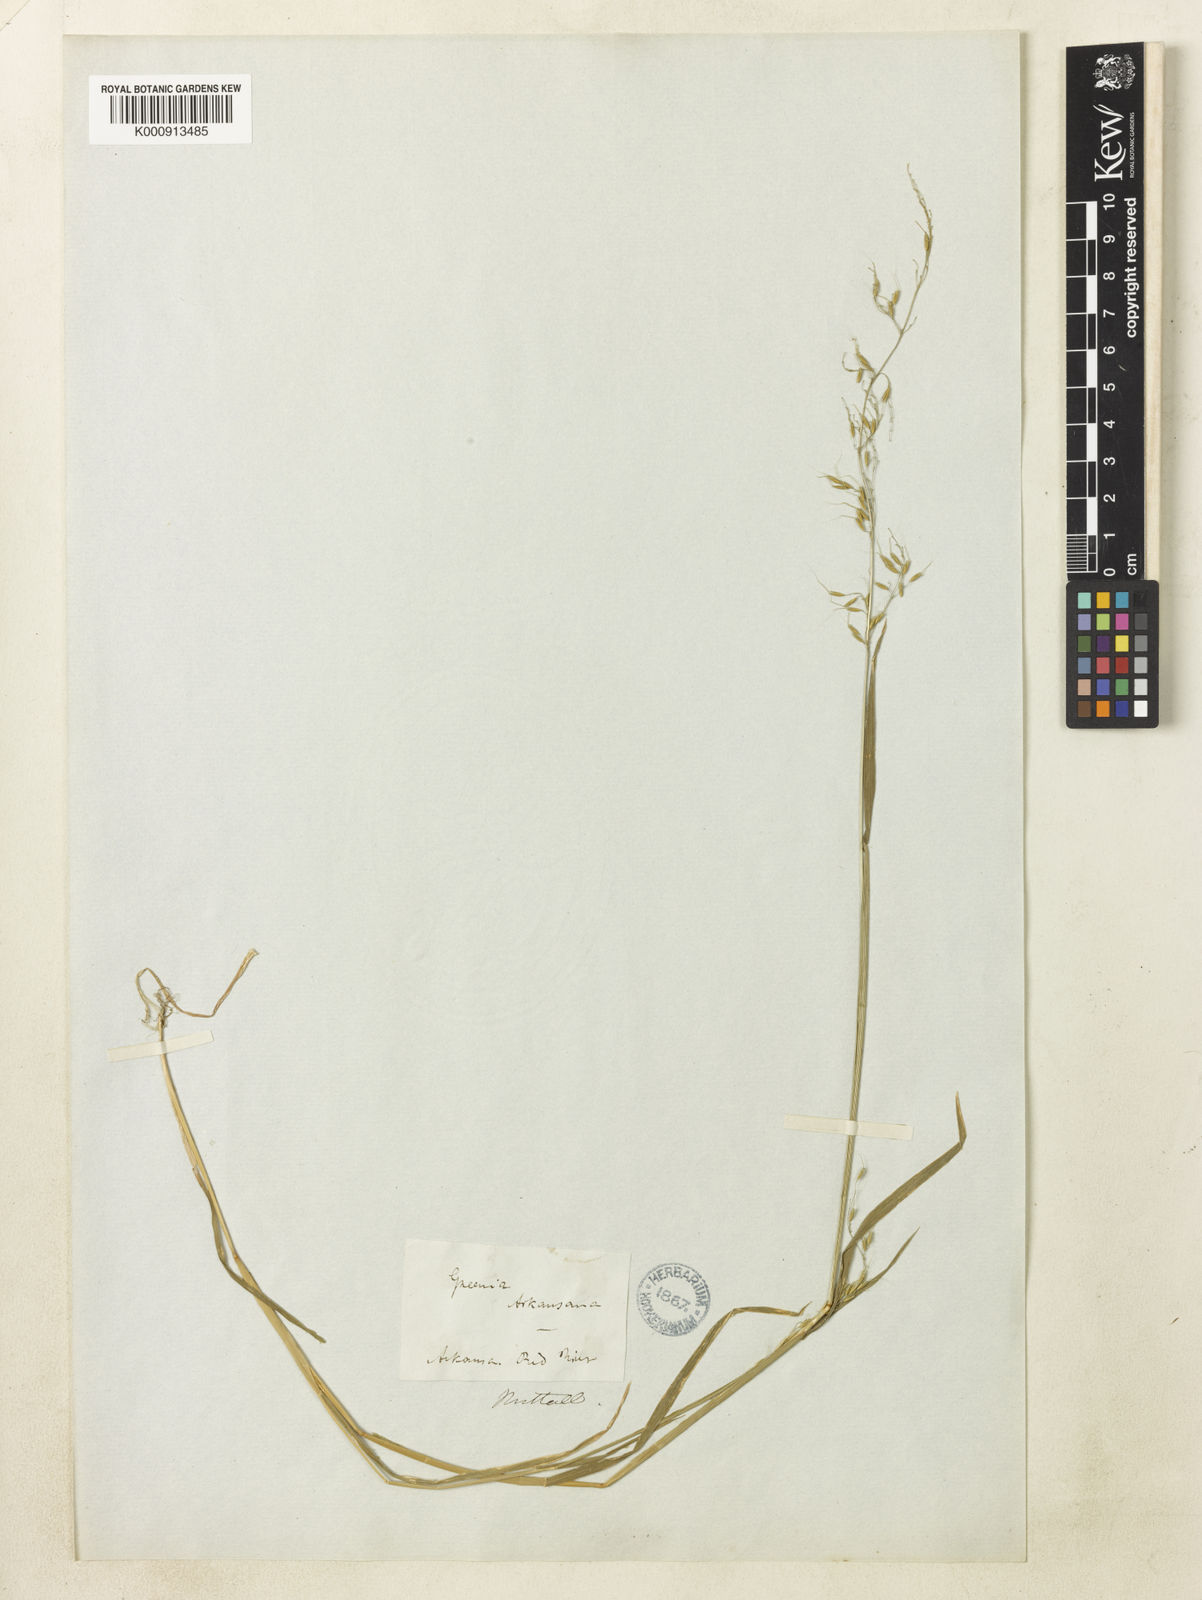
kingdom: Plantae
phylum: Tracheophyta
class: Liliopsida
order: Poales
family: Poaceae
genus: Limnodea
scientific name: Limnodea arkansana
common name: Ozark-grass
